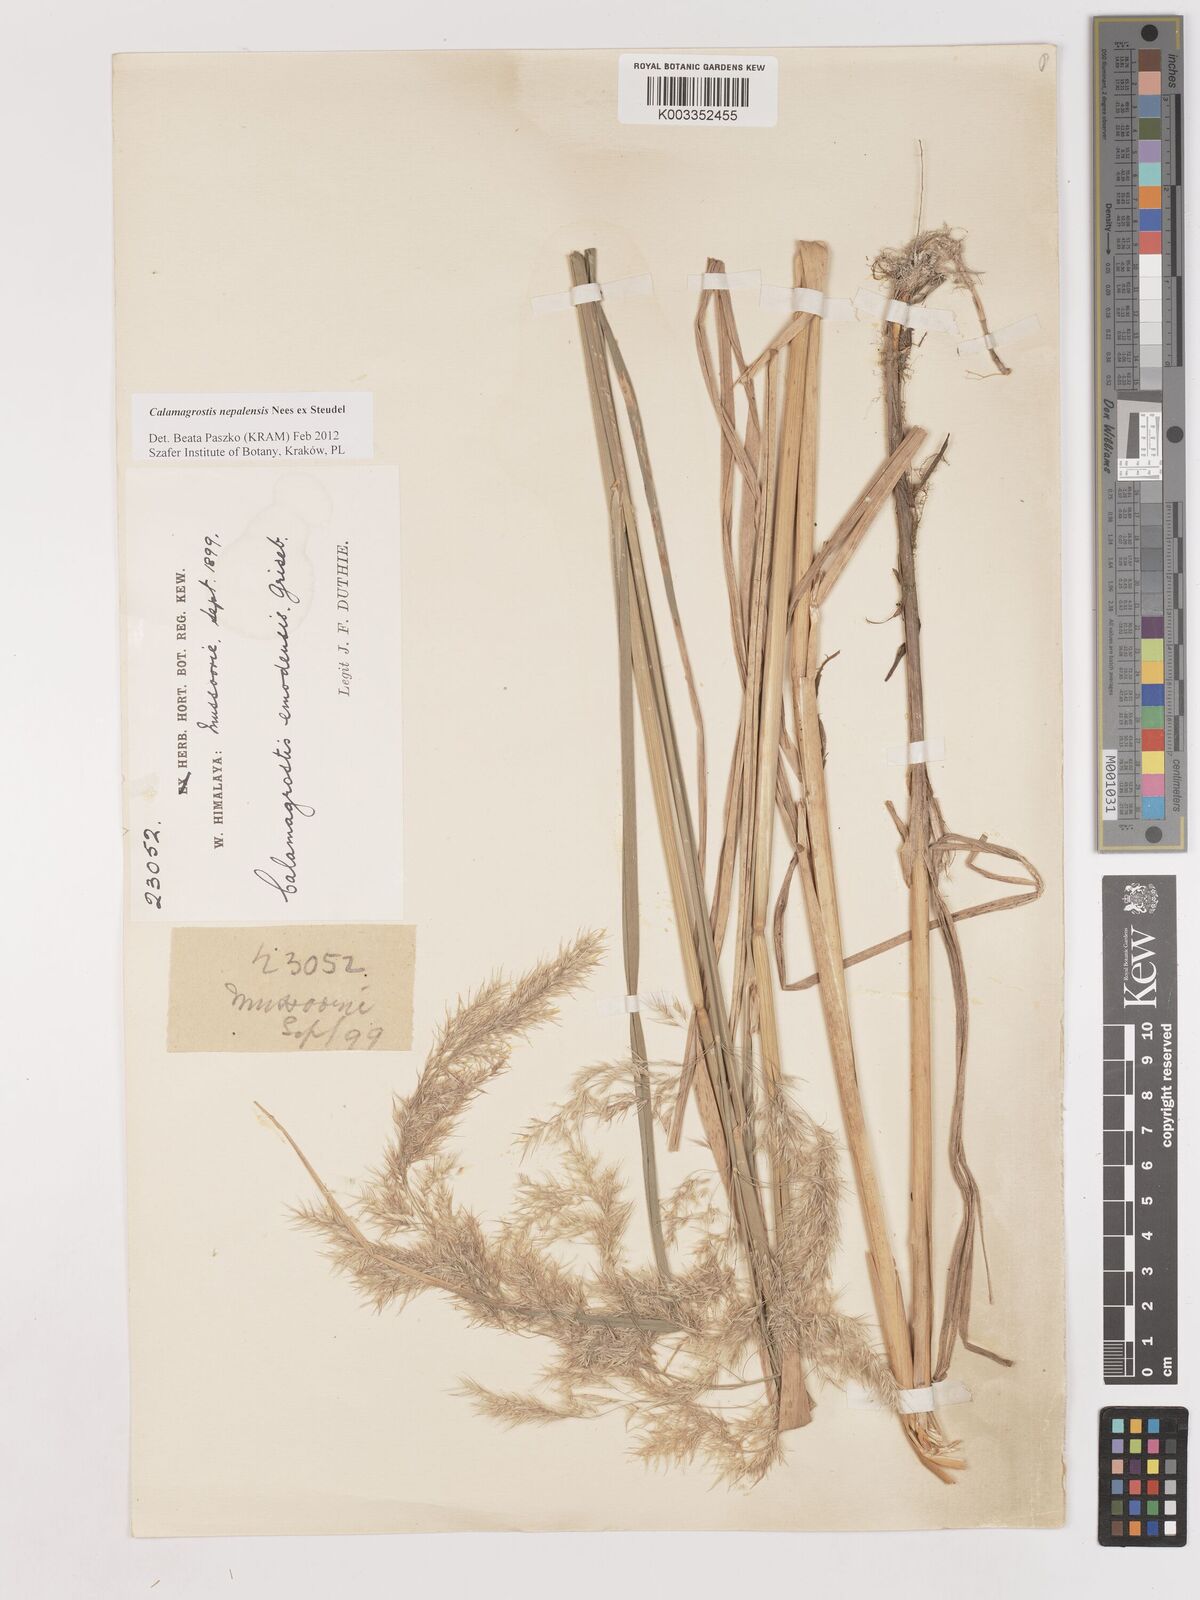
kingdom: Plantae
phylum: Tracheophyta
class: Liliopsida
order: Poales
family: Poaceae
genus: Calamagrostis
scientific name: Calamagrostis pseudophragmites
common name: Coastal small-reed
